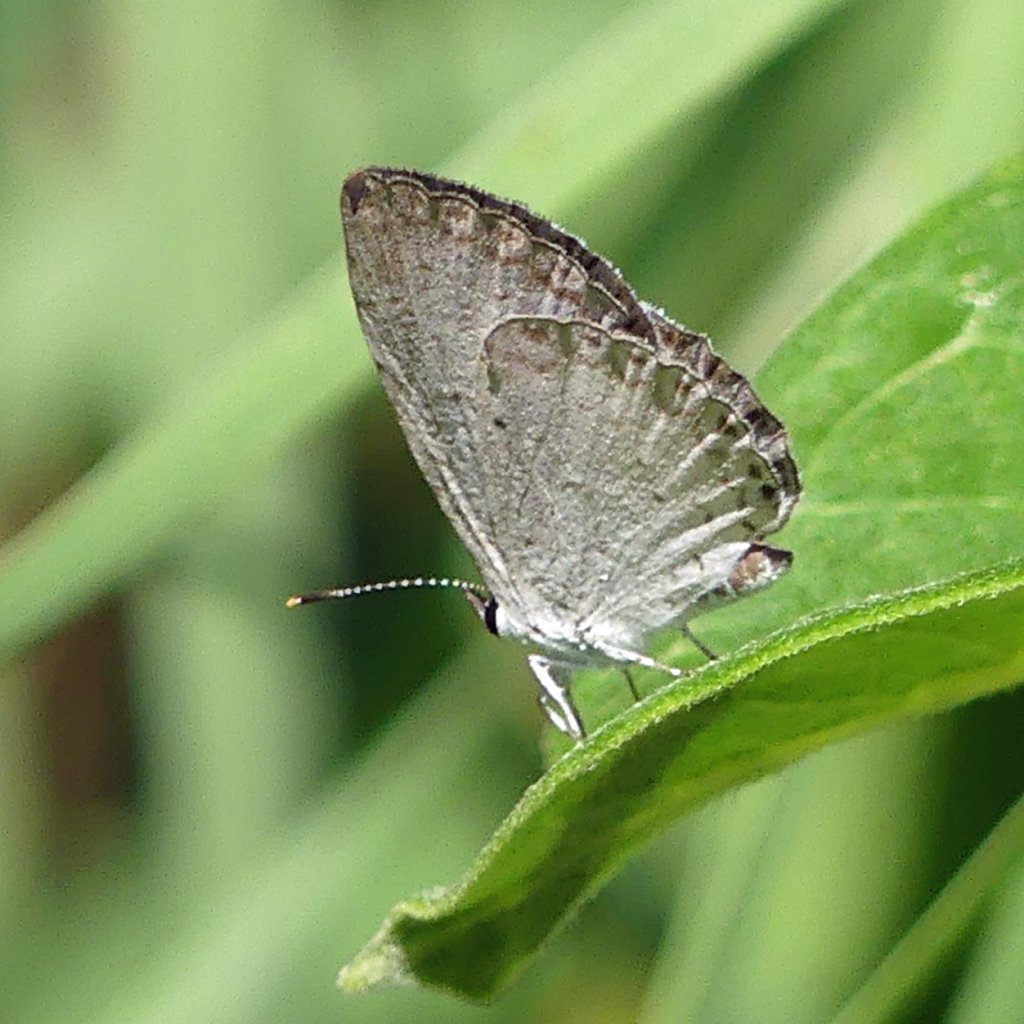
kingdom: Animalia
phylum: Arthropoda
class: Insecta
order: Lepidoptera
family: Lycaenidae
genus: Cyaniris
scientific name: Cyaniris neglecta
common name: Summer Azure
